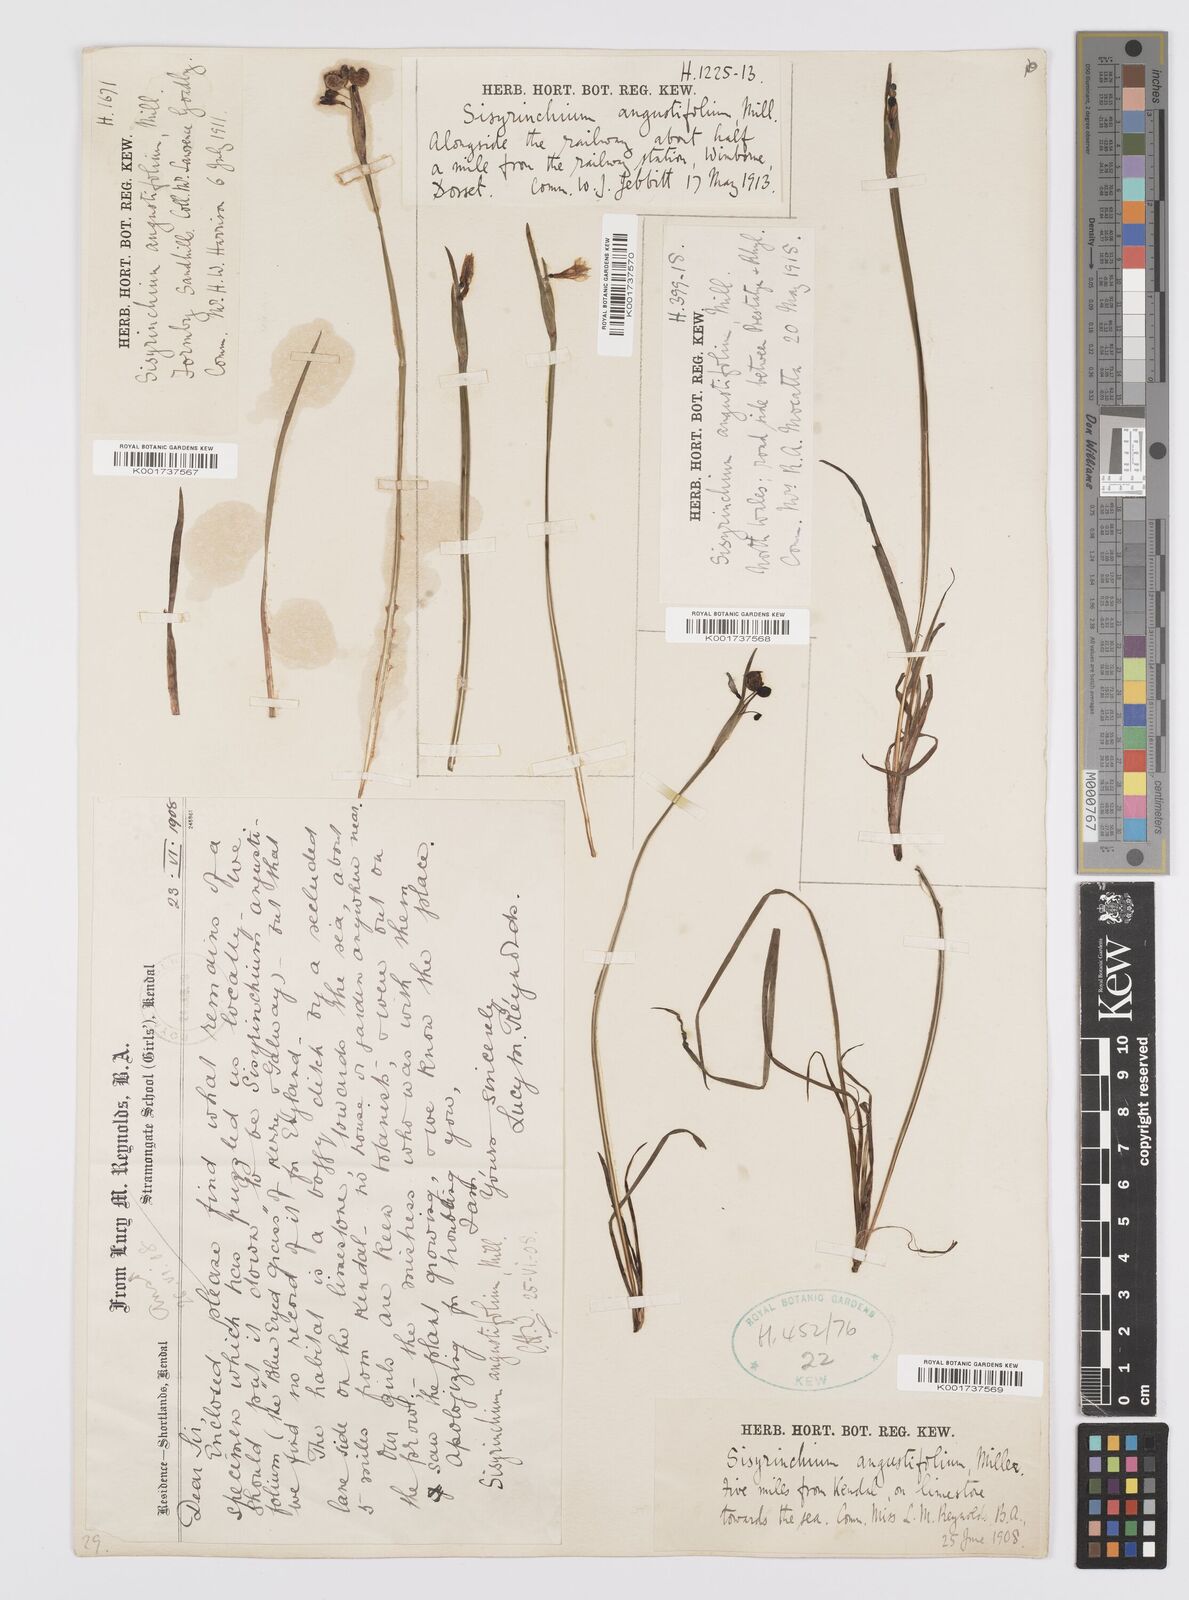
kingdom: Plantae
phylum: Tracheophyta
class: Liliopsida
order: Asparagales
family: Iridaceae
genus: Sisyrinchium
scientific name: Sisyrinchium angustifolium
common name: Narrow-leaf blue-eyed-grass
